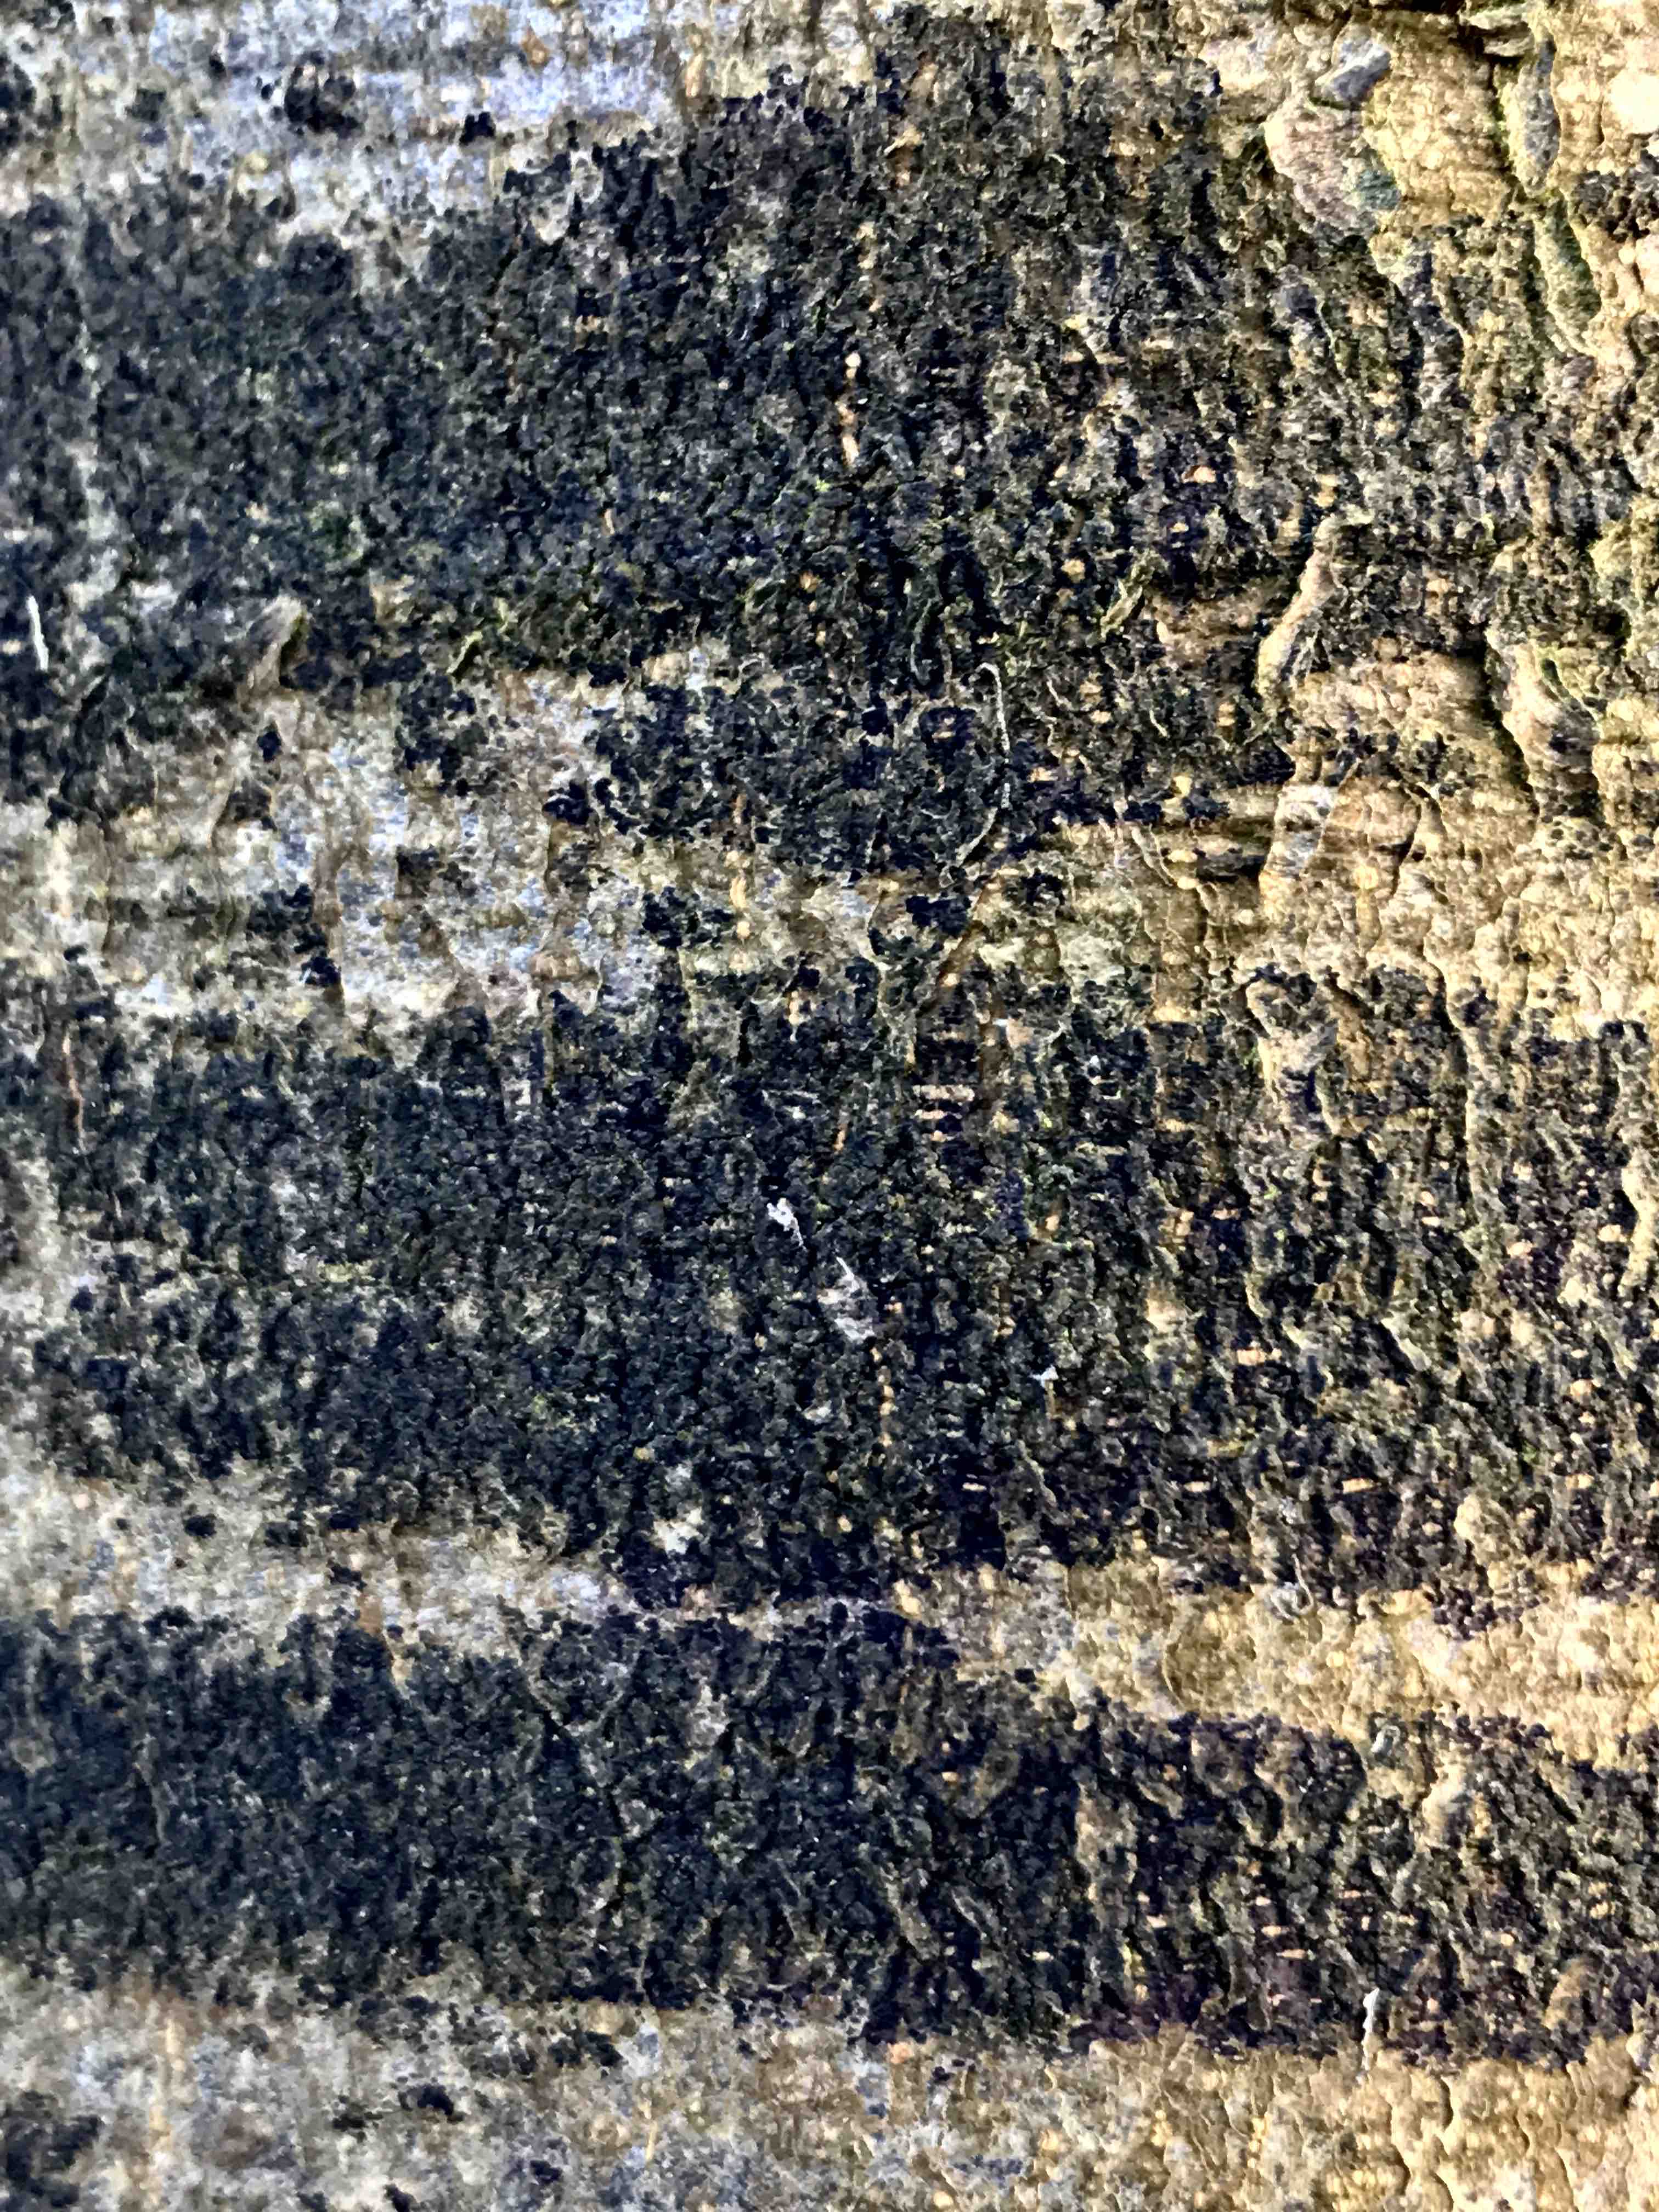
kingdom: Fungi
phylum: Ascomycota
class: Leotiomycetes
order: Rhytismatales
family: Ascodichaenaceae
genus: Ascodichaena
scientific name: Ascodichaena rugosa
